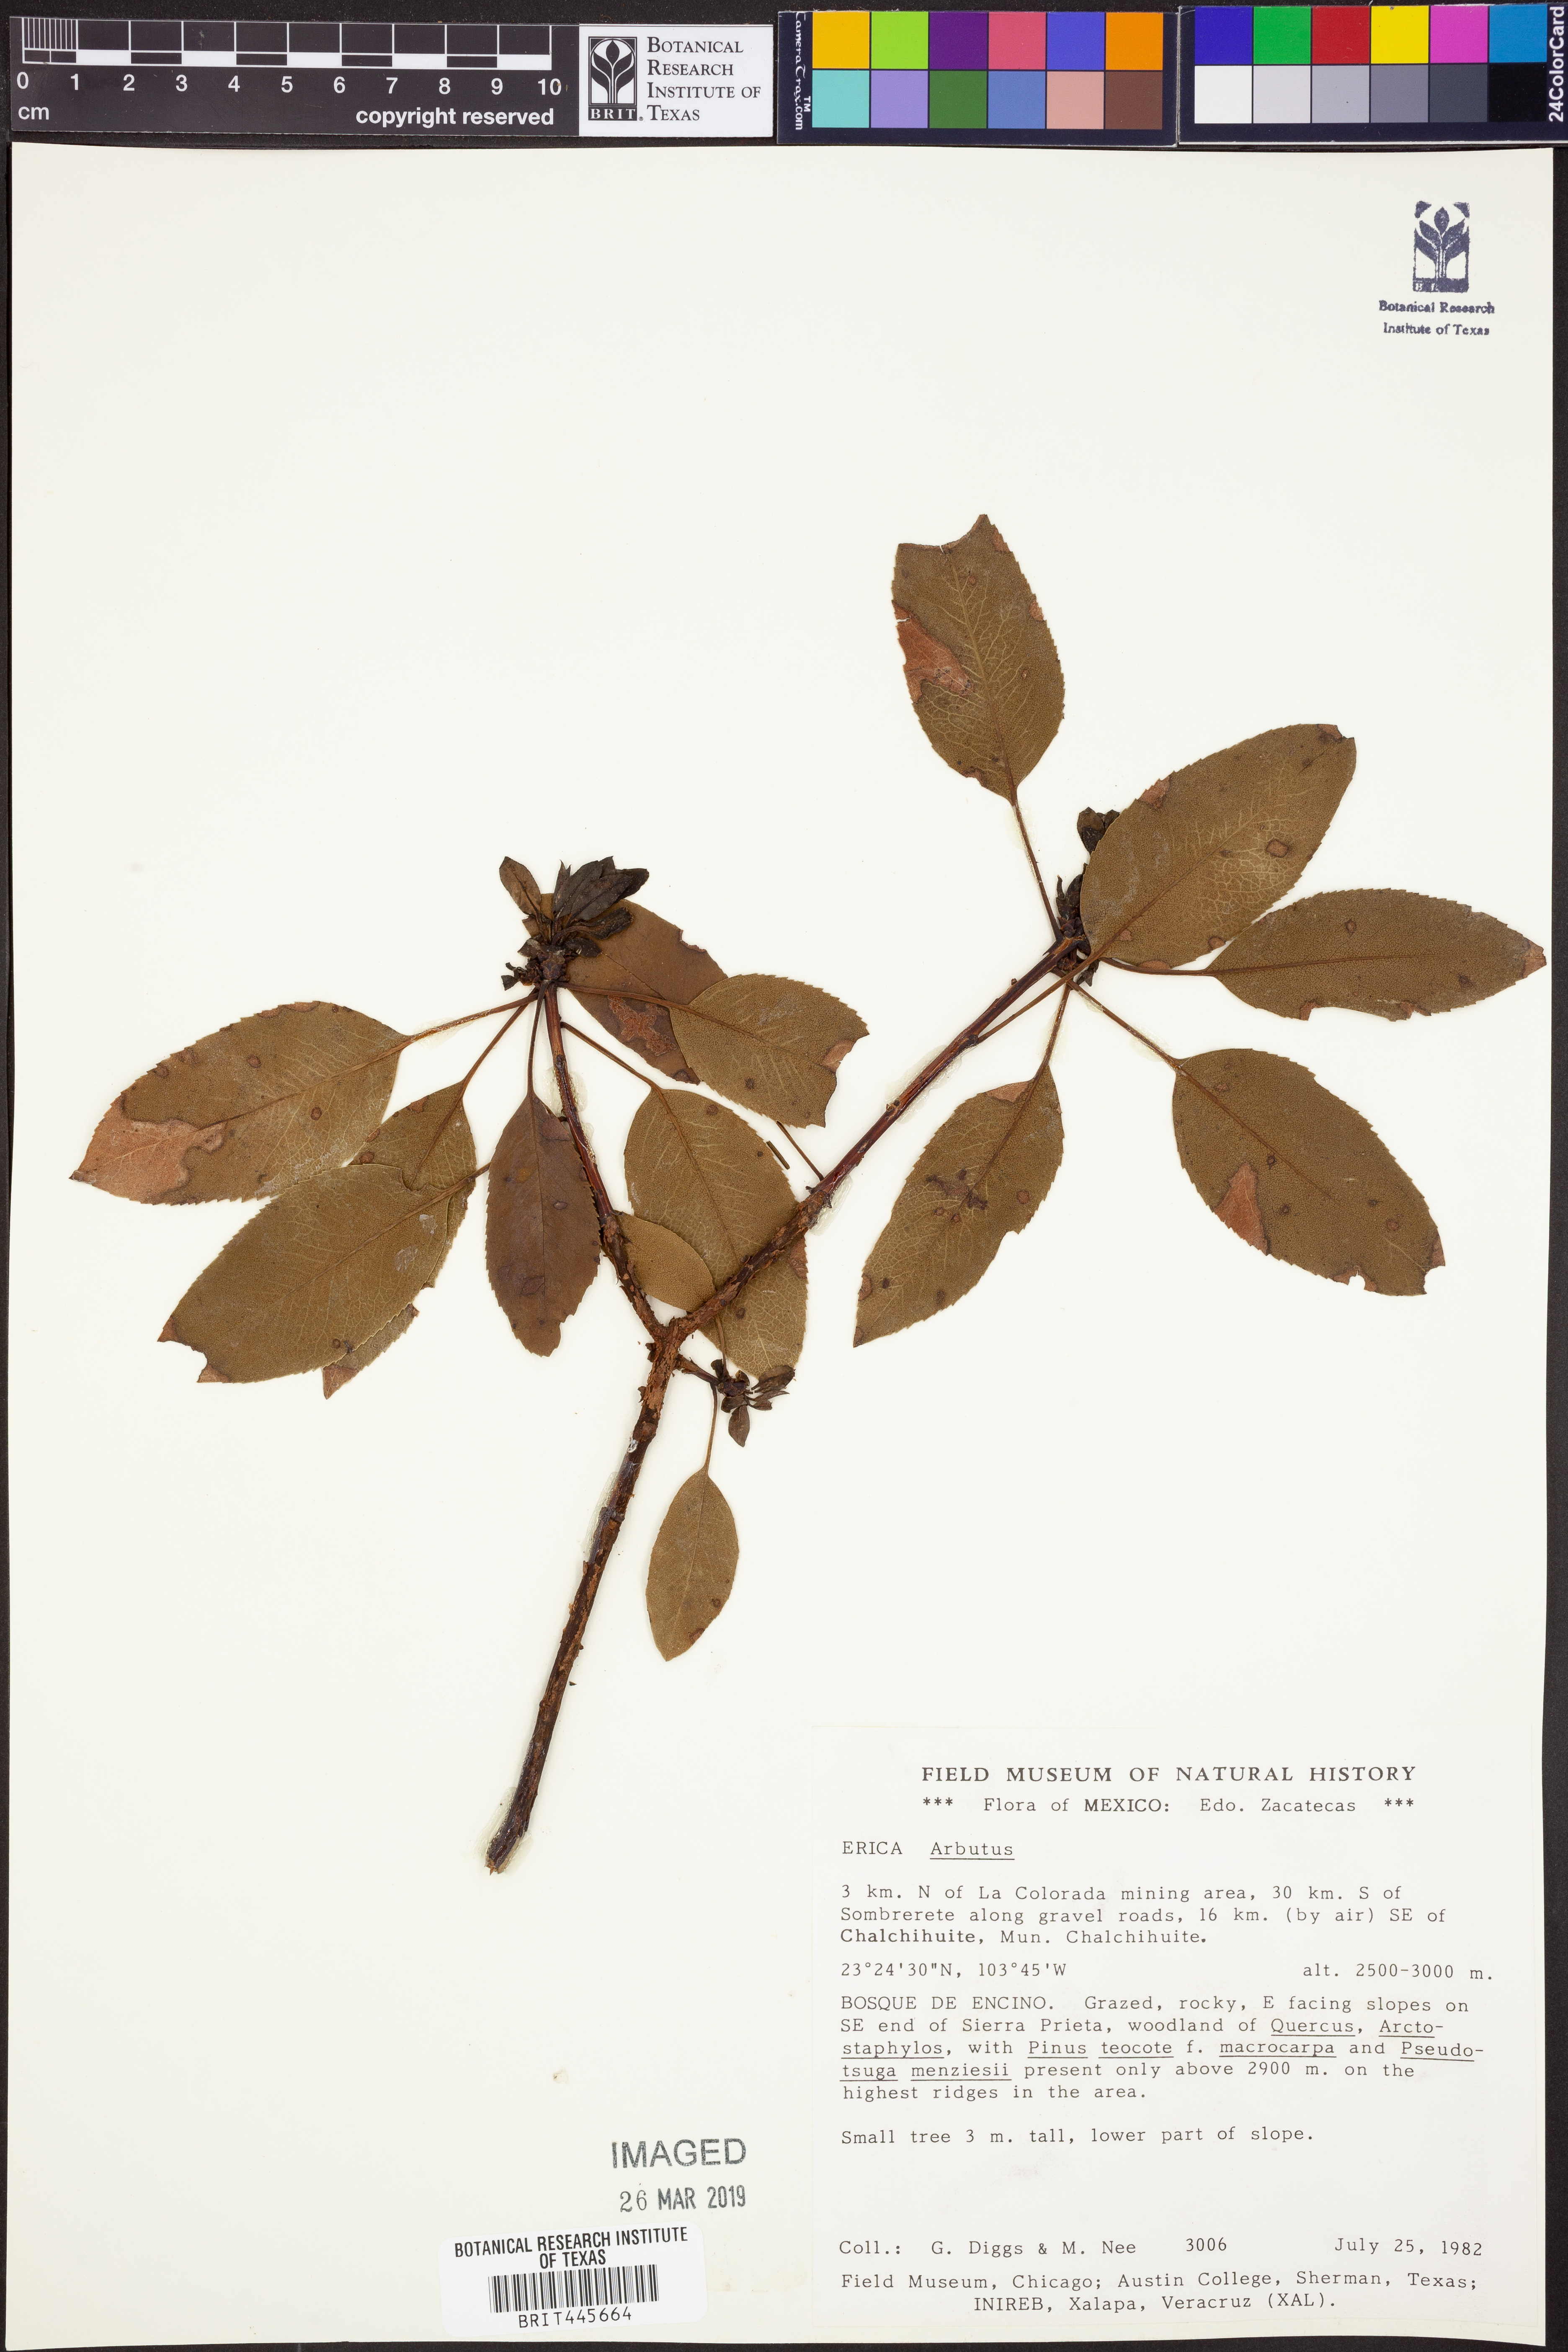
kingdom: Plantae
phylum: Tracheophyta
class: Magnoliopsida
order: Ericales
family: Ericaceae
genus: Arbutus
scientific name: Arbutus
